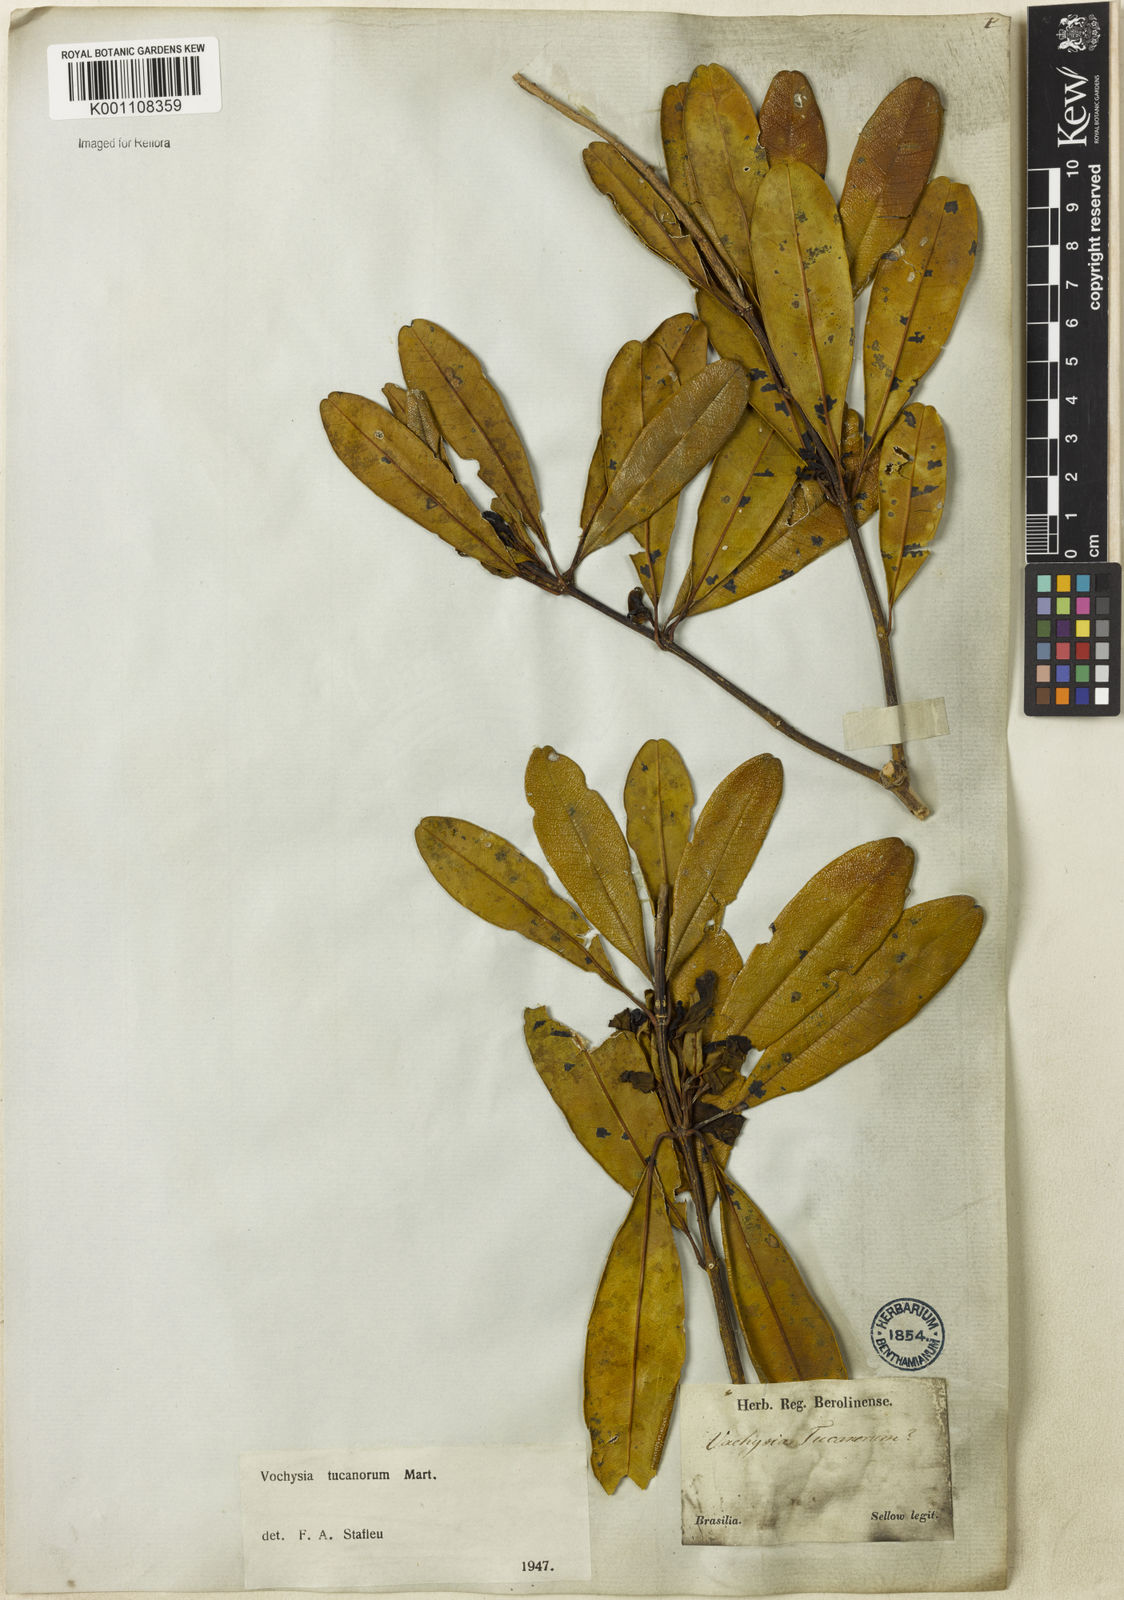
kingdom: Plantae
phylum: Tracheophyta
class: Magnoliopsida
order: Myrtales
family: Vochysiaceae
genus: Vochysia
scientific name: Vochysia tucanorum
